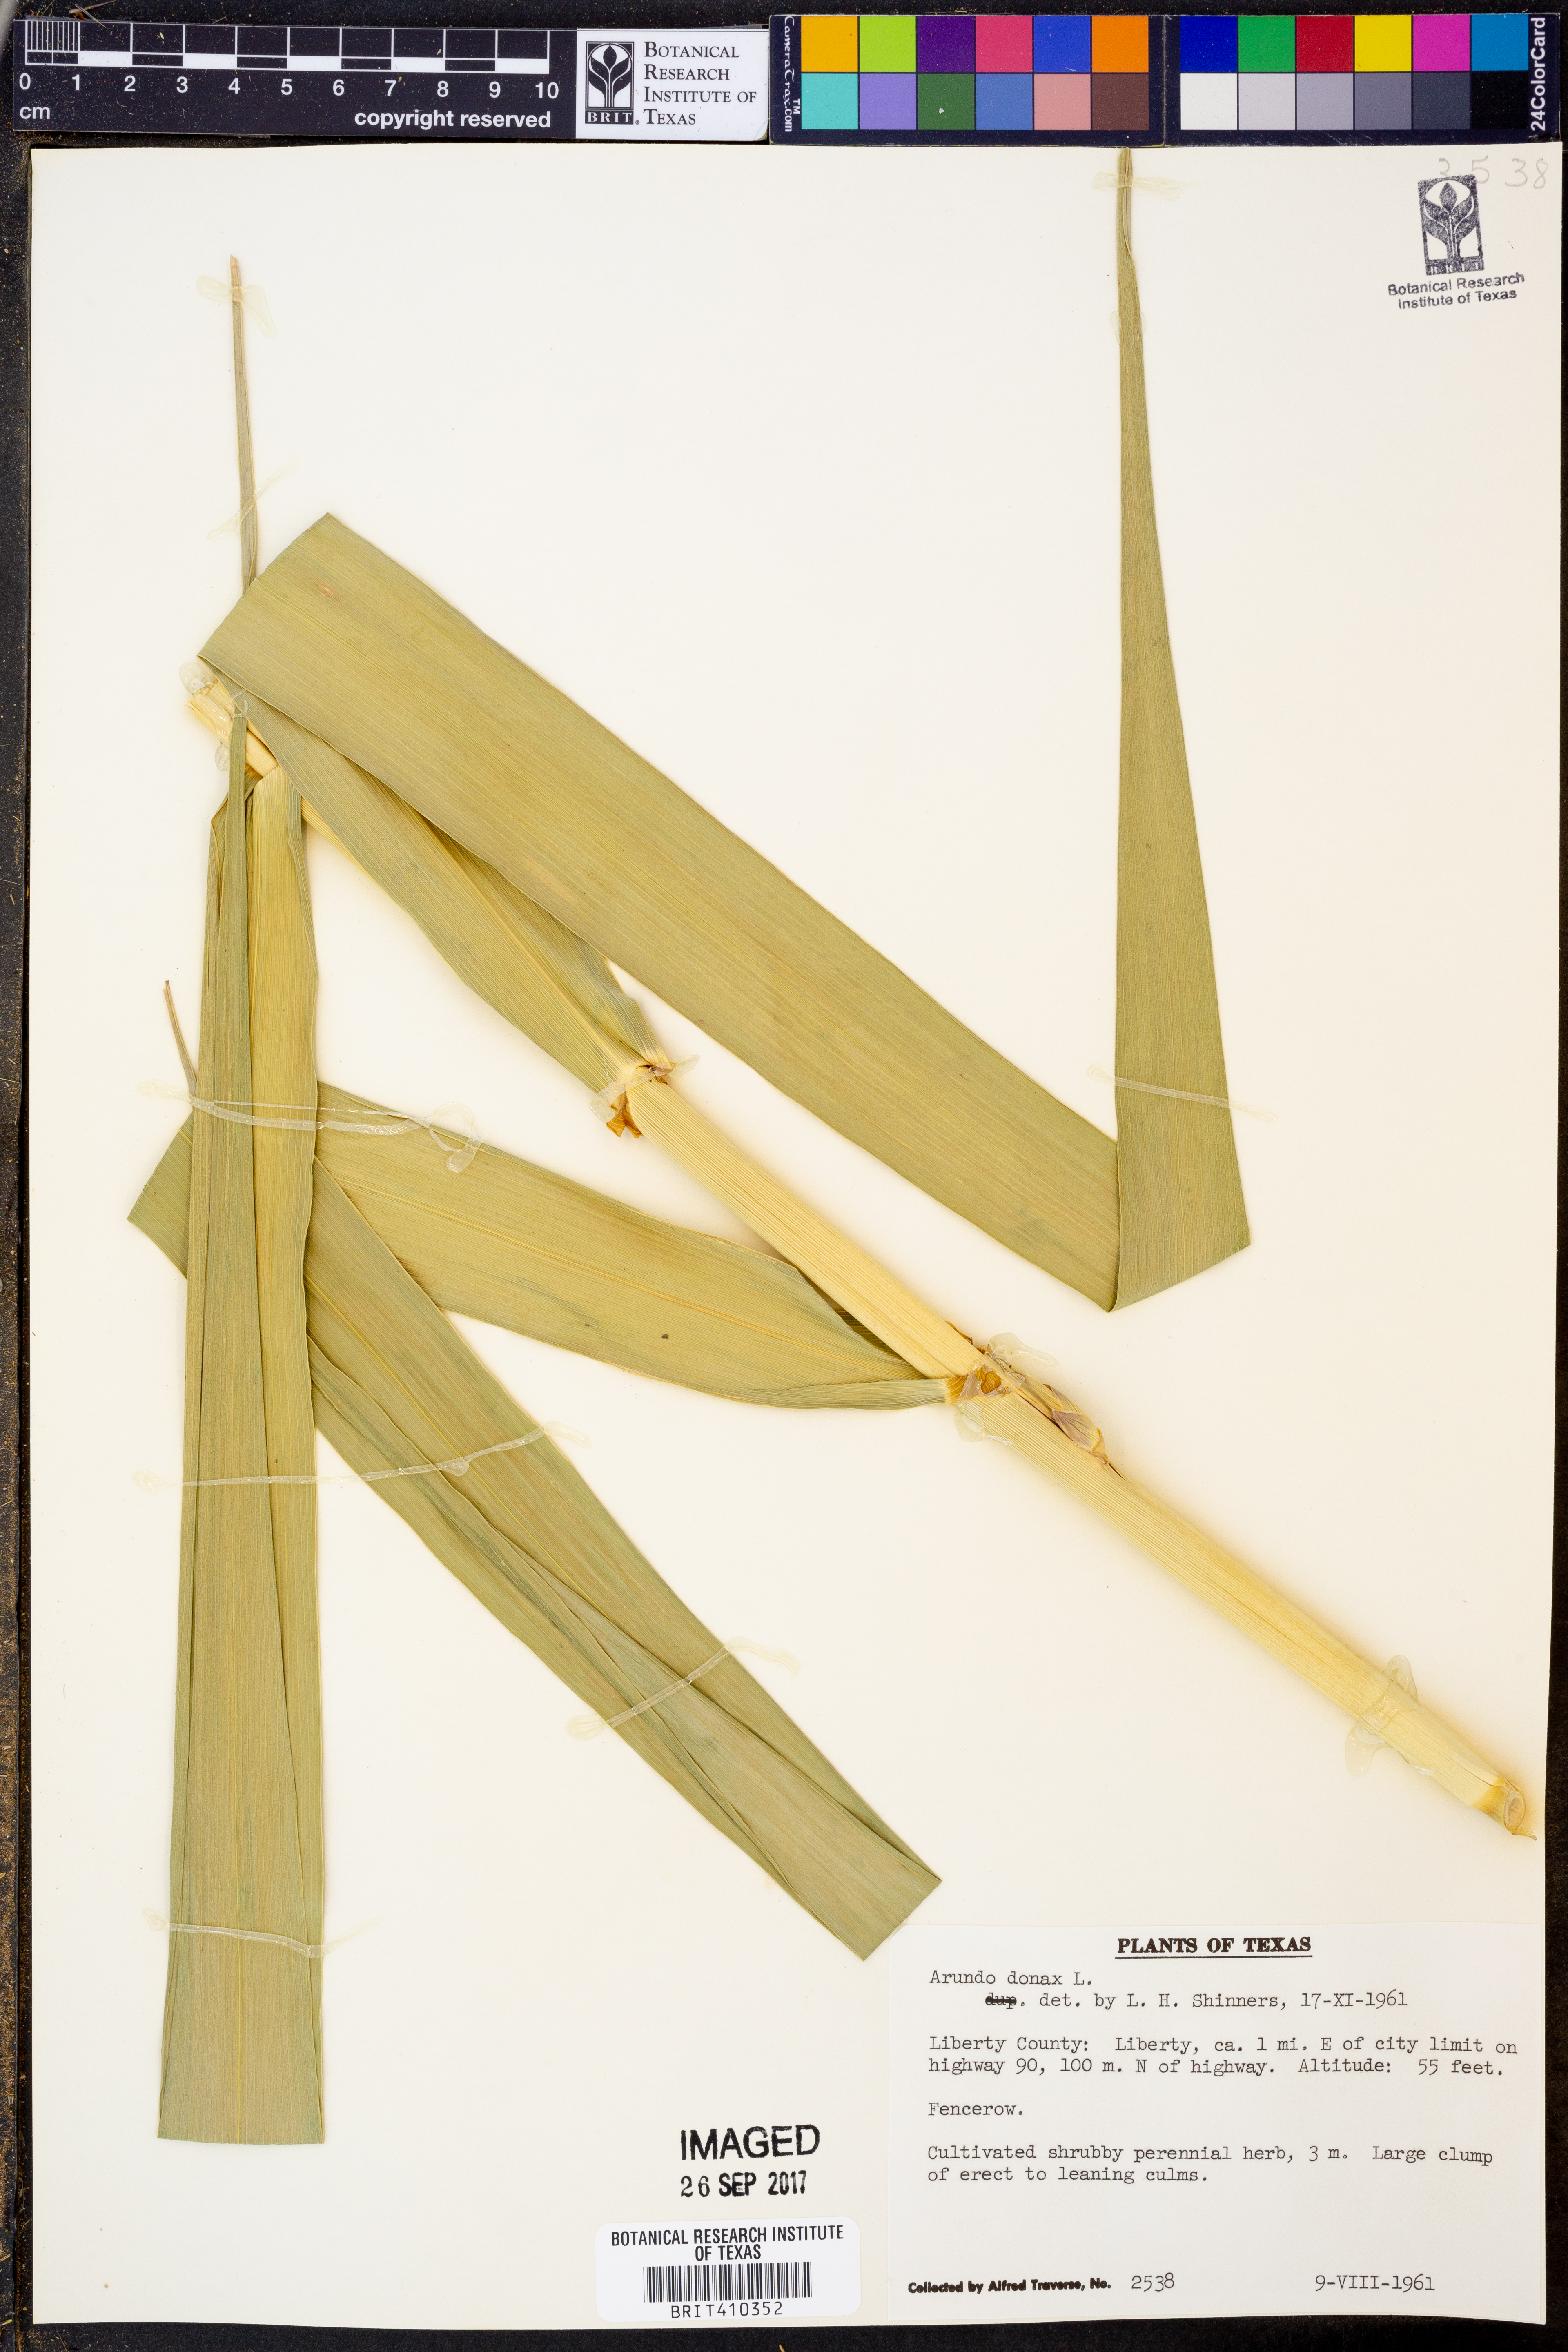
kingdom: Plantae
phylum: Tracheophyta
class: Liliopsida
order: Poales
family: Poaceae
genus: Arundo
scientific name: Arundo donax
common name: Giant reed
